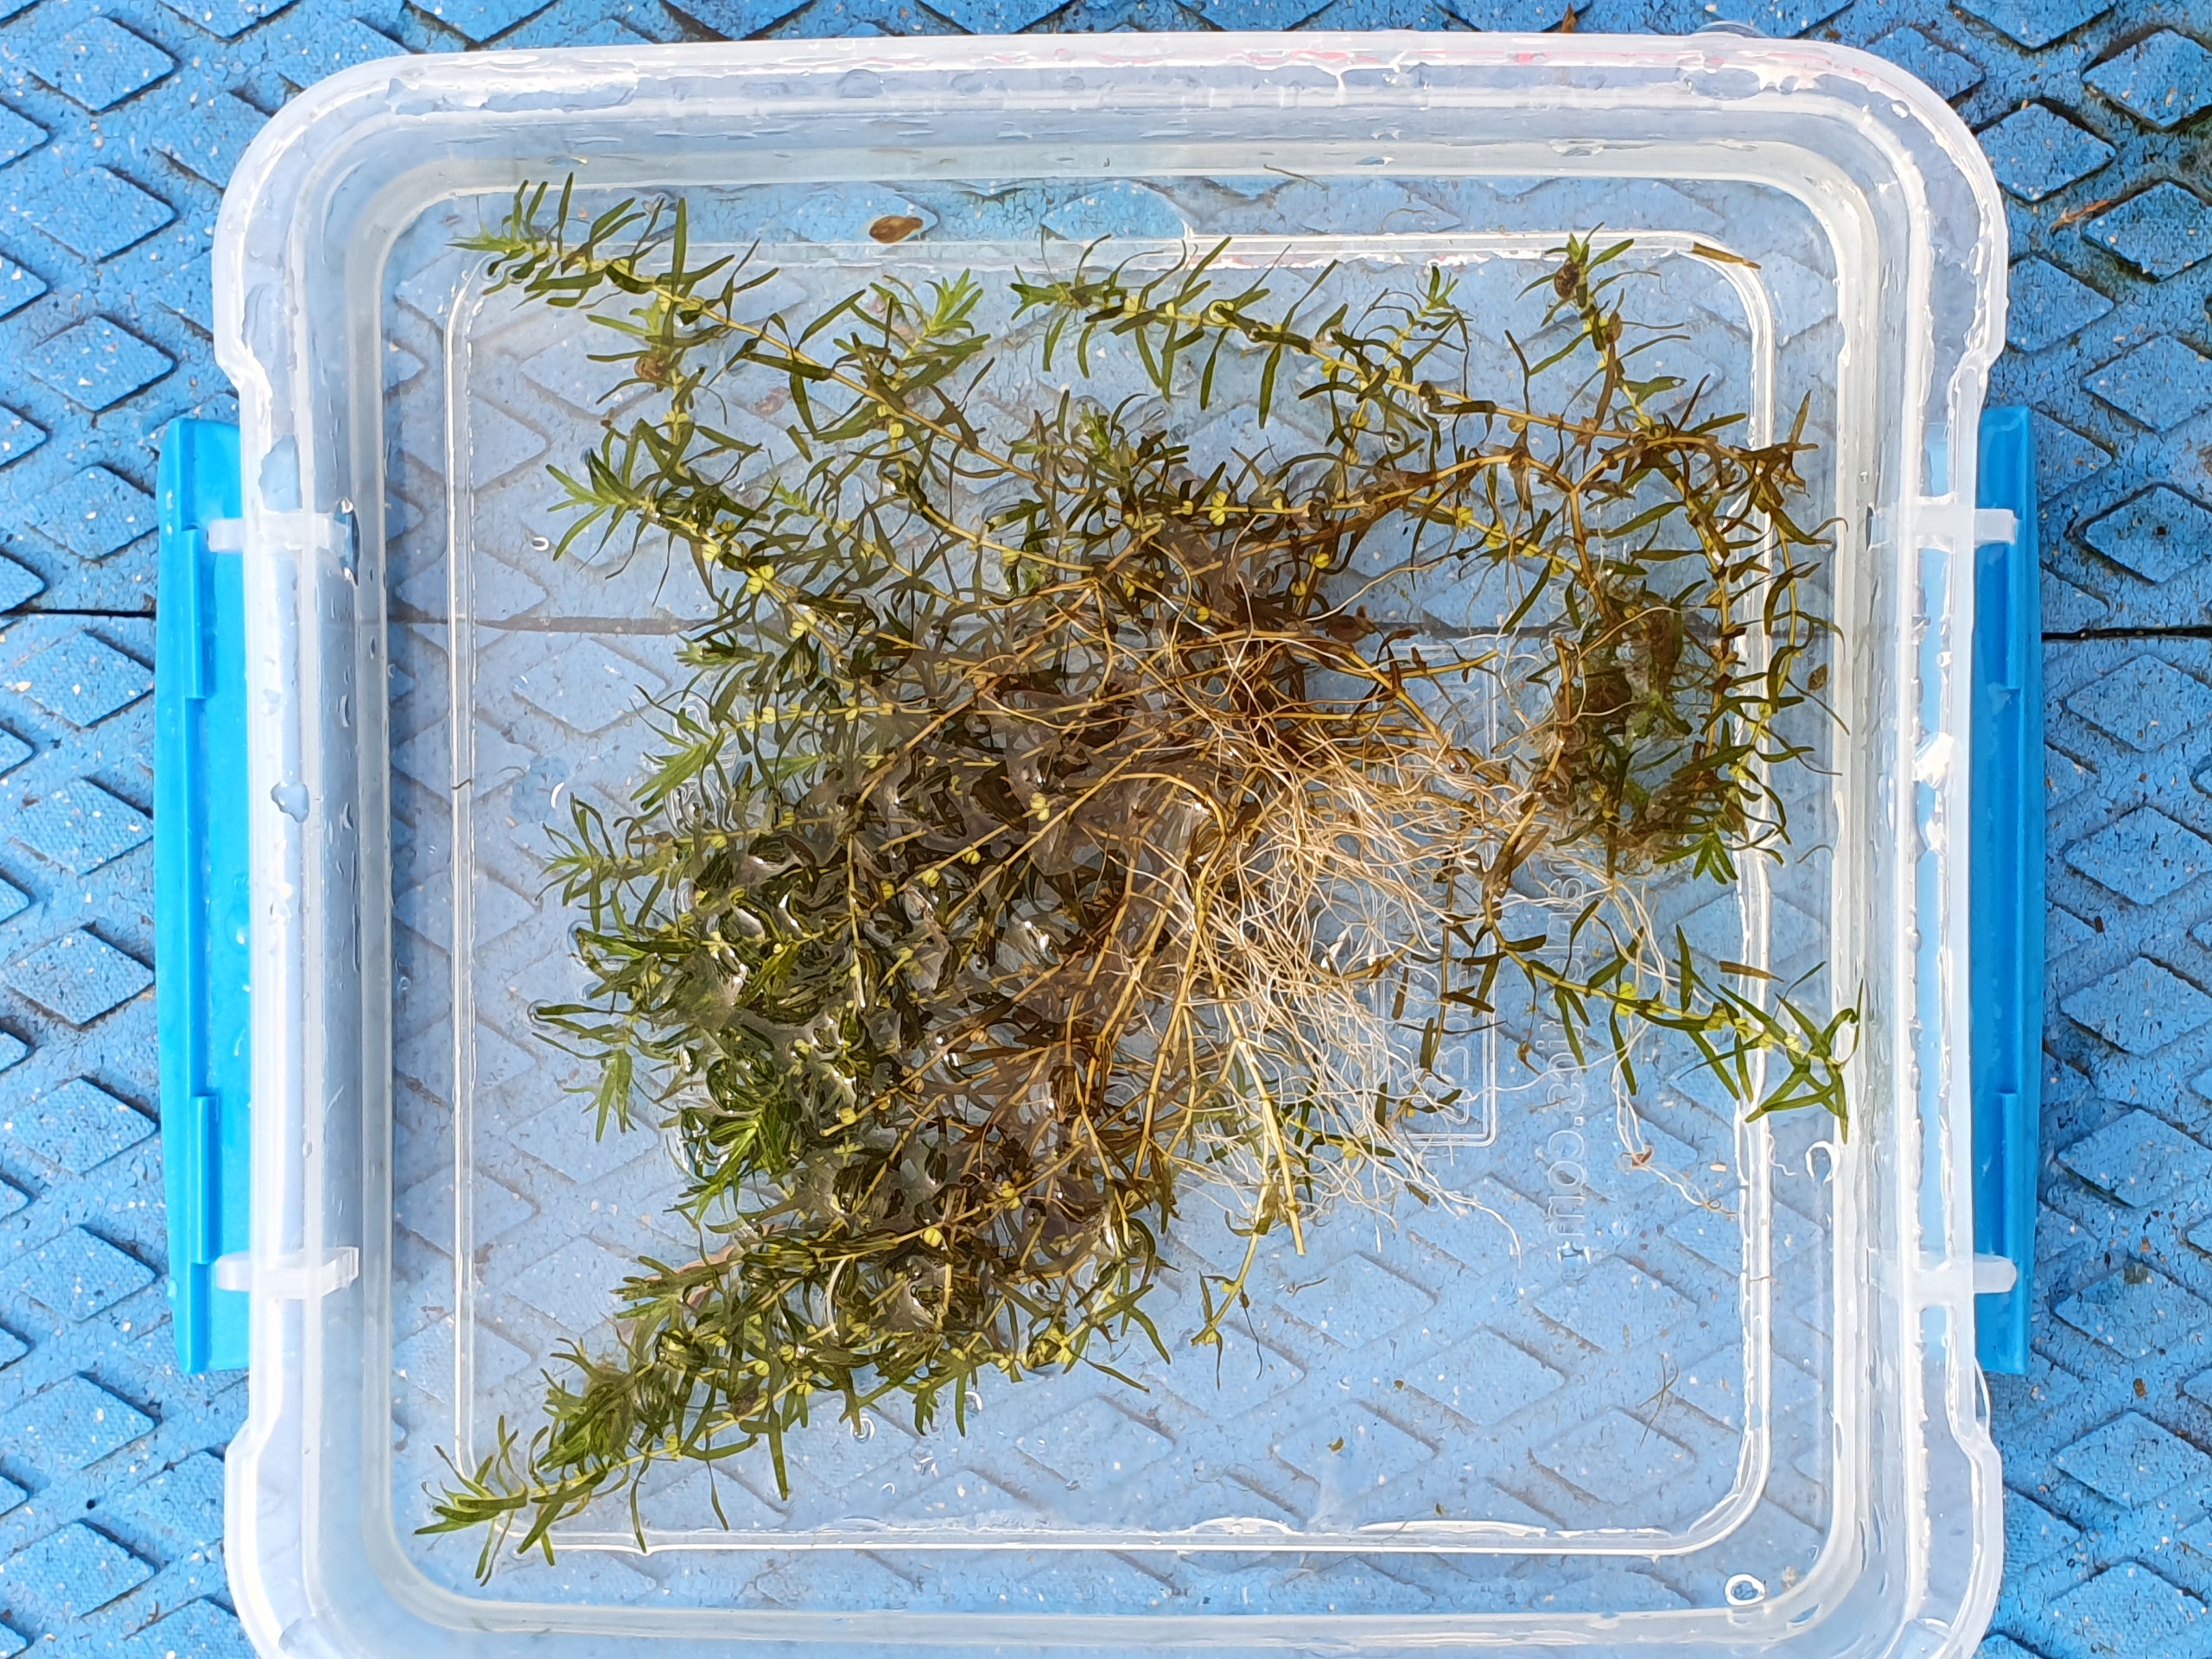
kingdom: Plantae
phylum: Tracheophyta
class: Magnoliopsida
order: Lamiales
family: Plantaginaceae
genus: Callitriche
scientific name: Callitriche hermaphroditica
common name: Høst-vandstjerne
